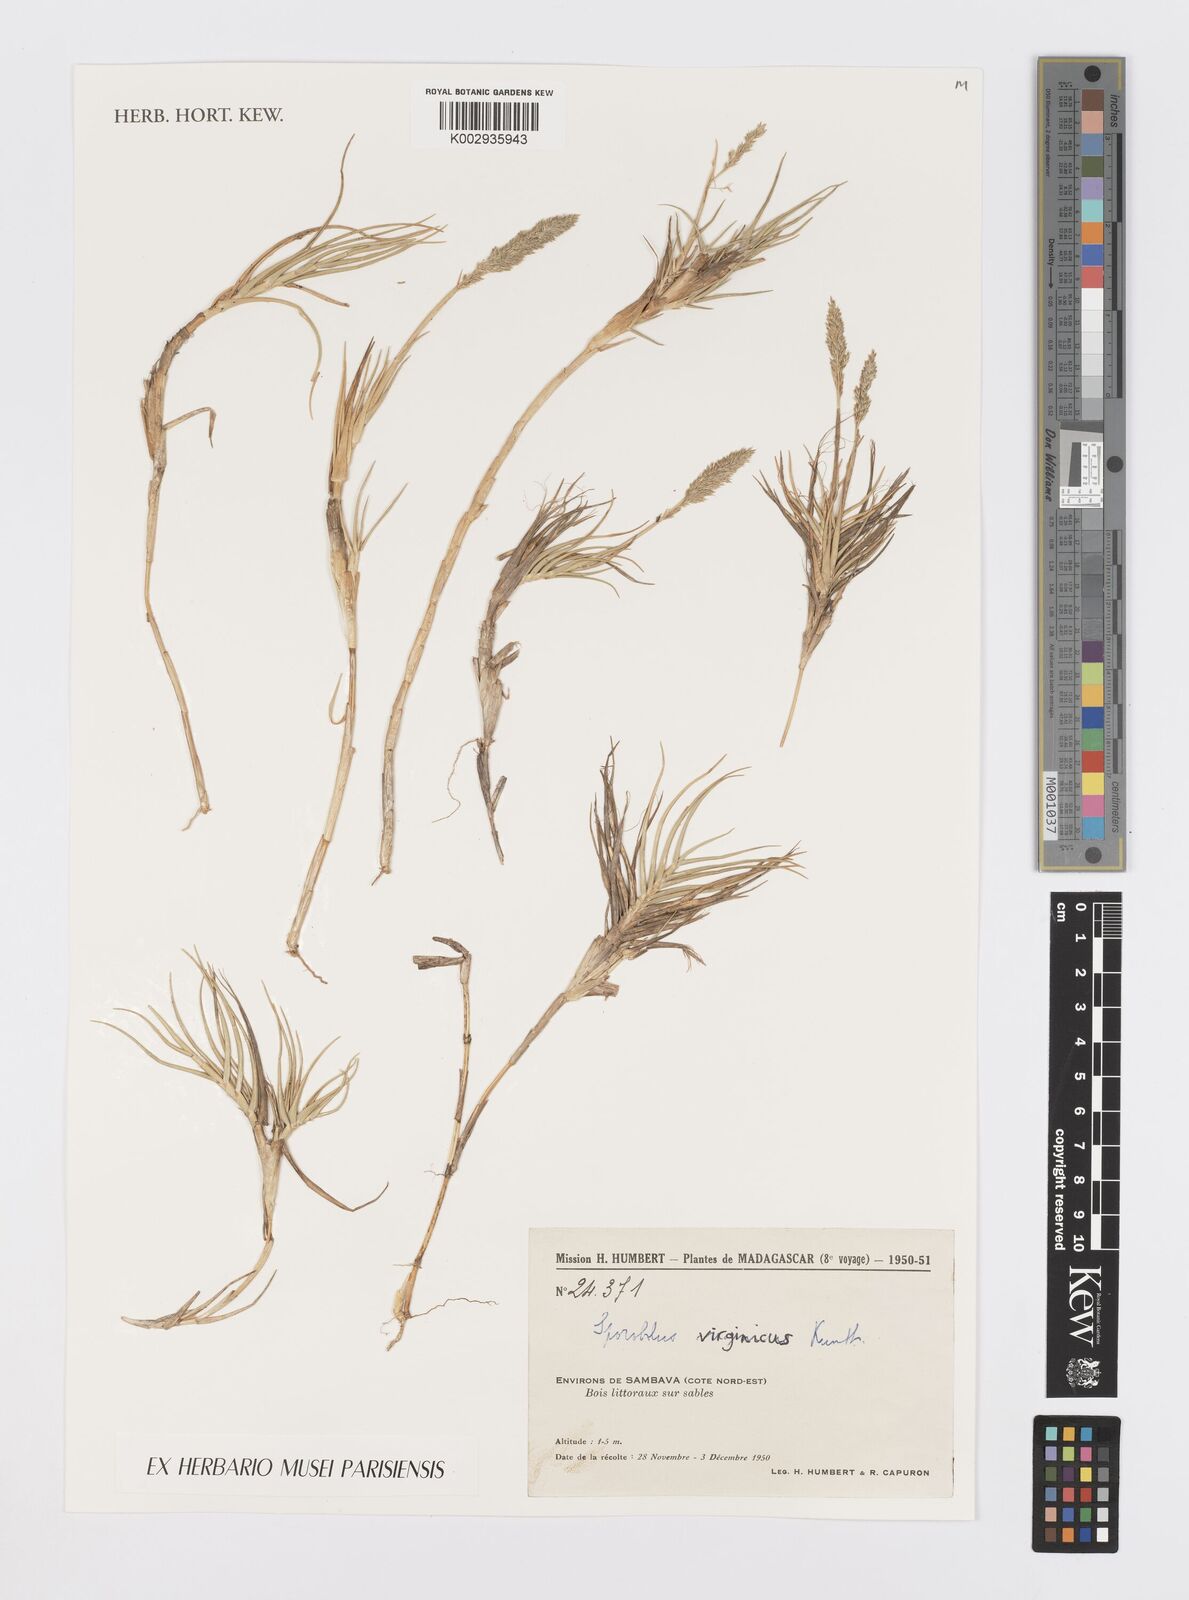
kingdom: Plantae
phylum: Tracheophyta
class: Liliopsida
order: Poales
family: Poaceae
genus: Sporobolus
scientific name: Sporobolus virginicus
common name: Beach dropseed
